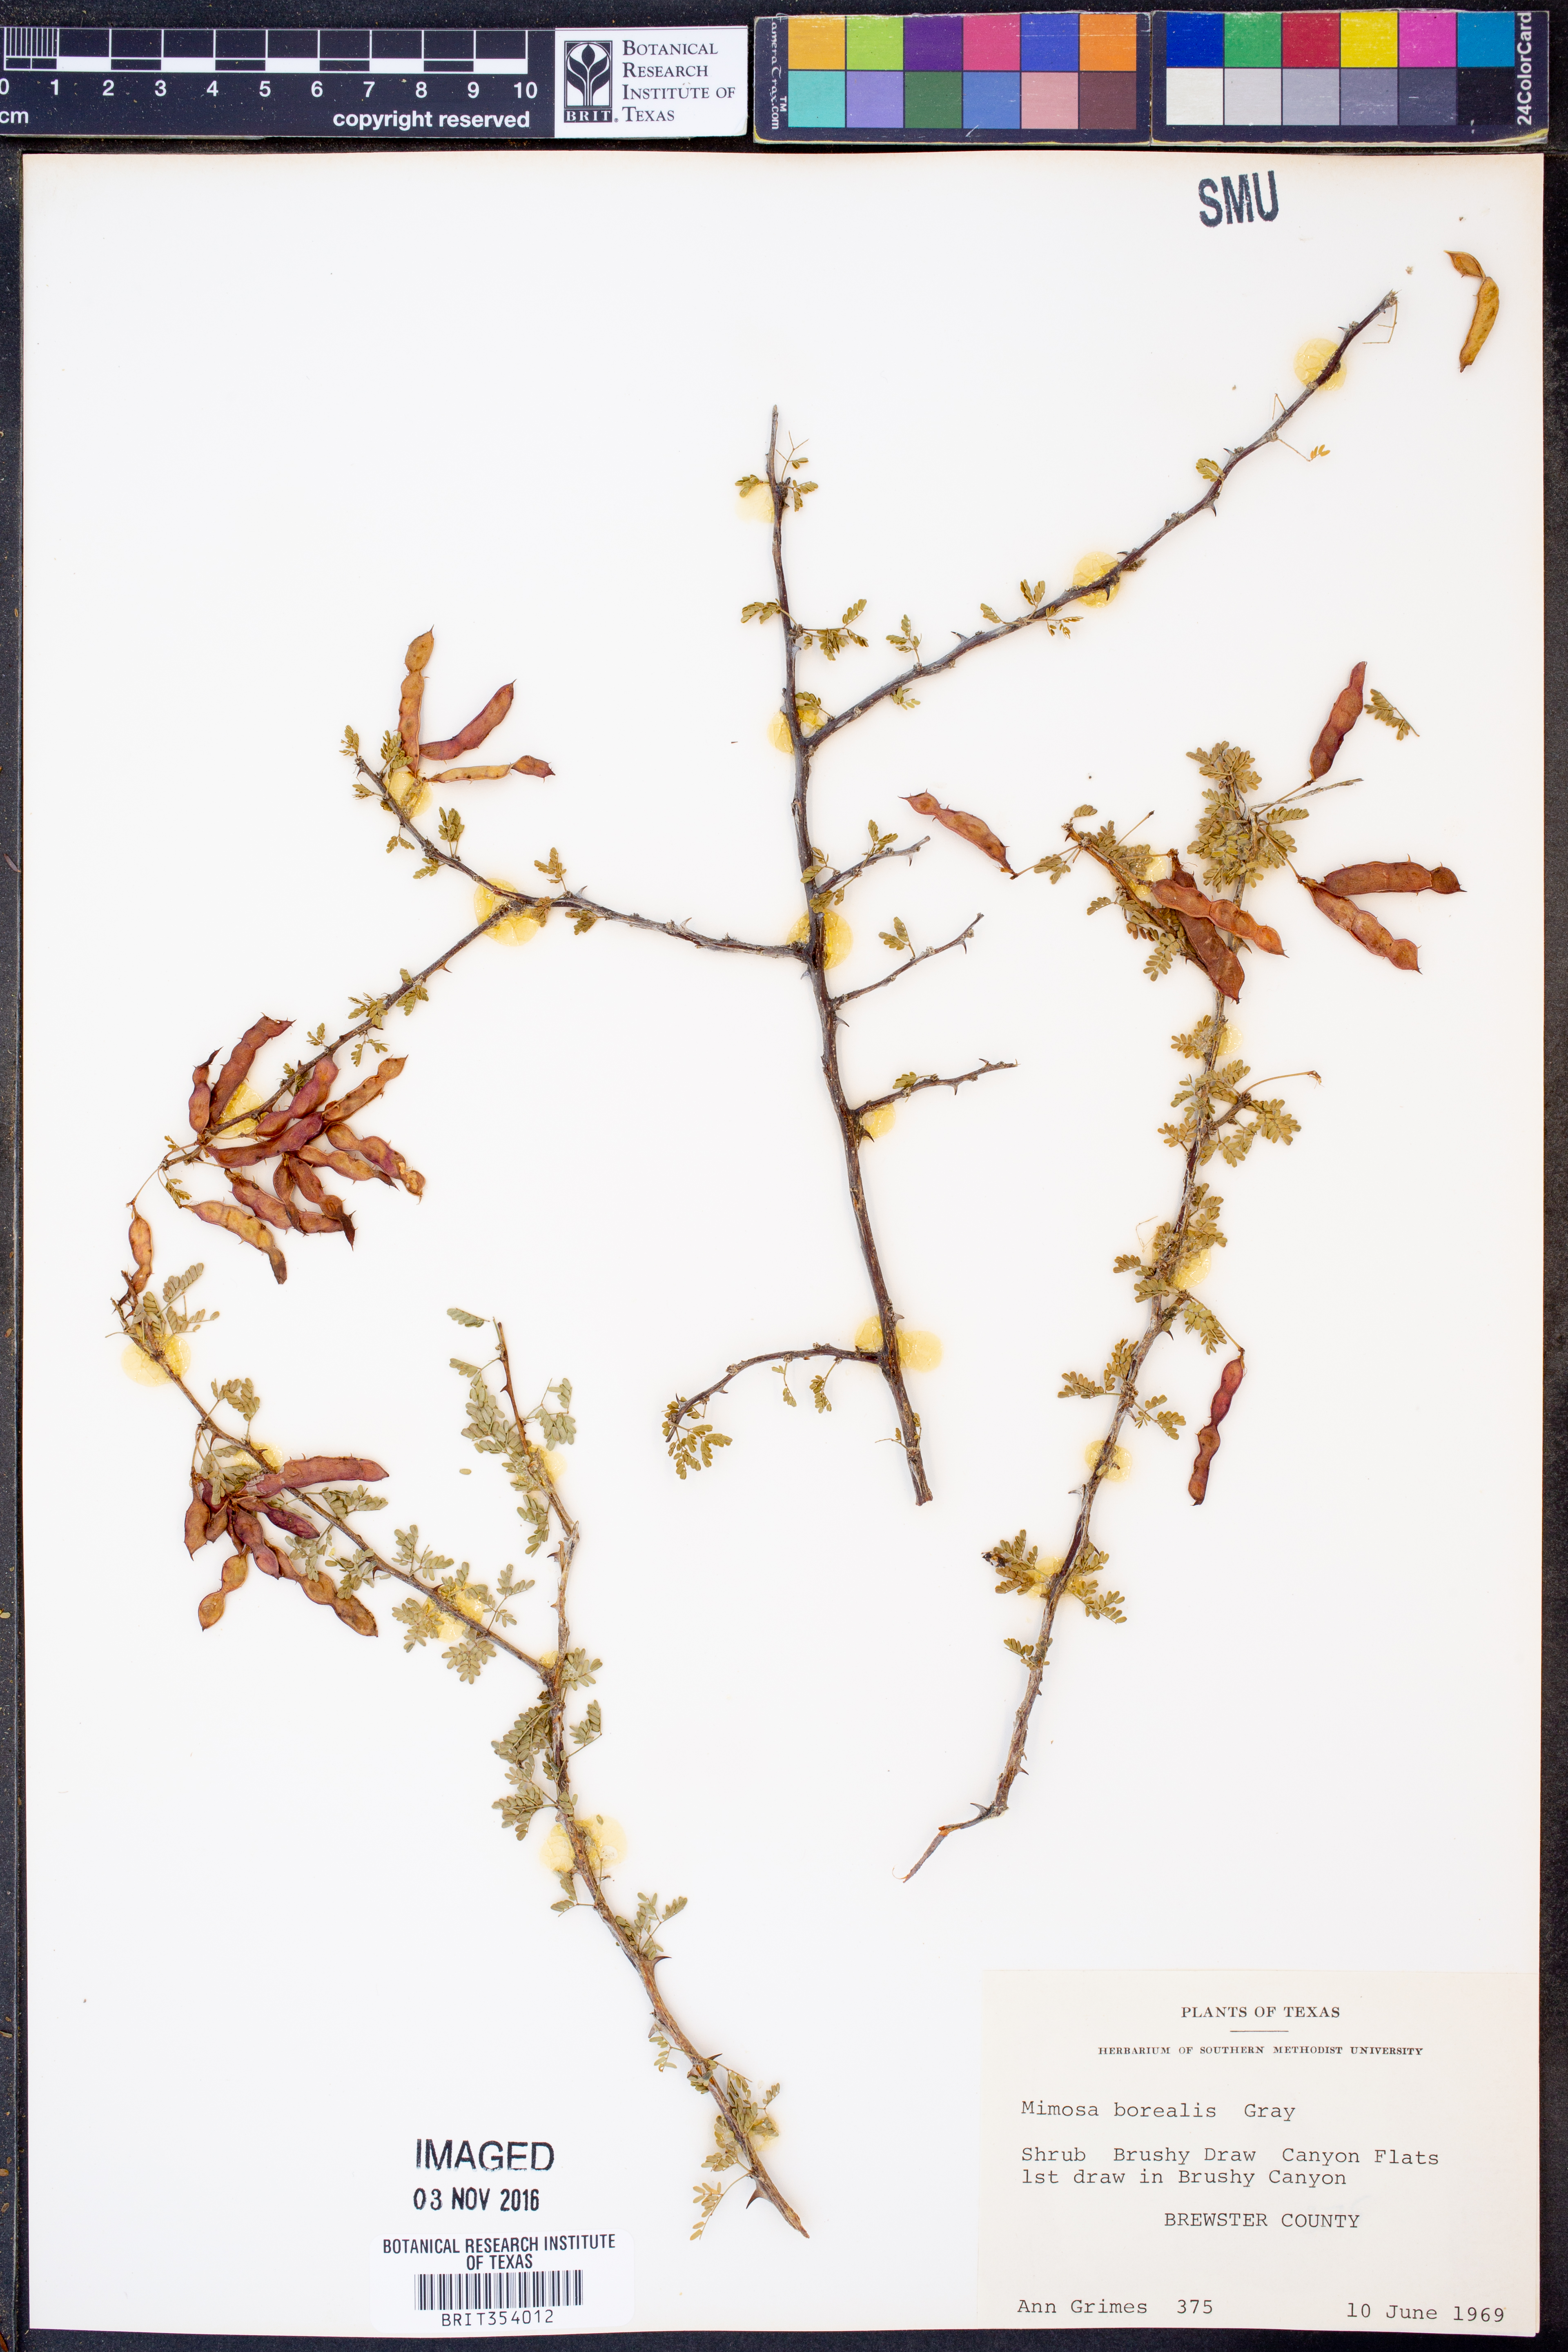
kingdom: Plantae
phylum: Tracheophyta
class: Magnoliopsida
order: Fabales
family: Fabaceae
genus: Mimosa
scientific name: Mimosa borealis
